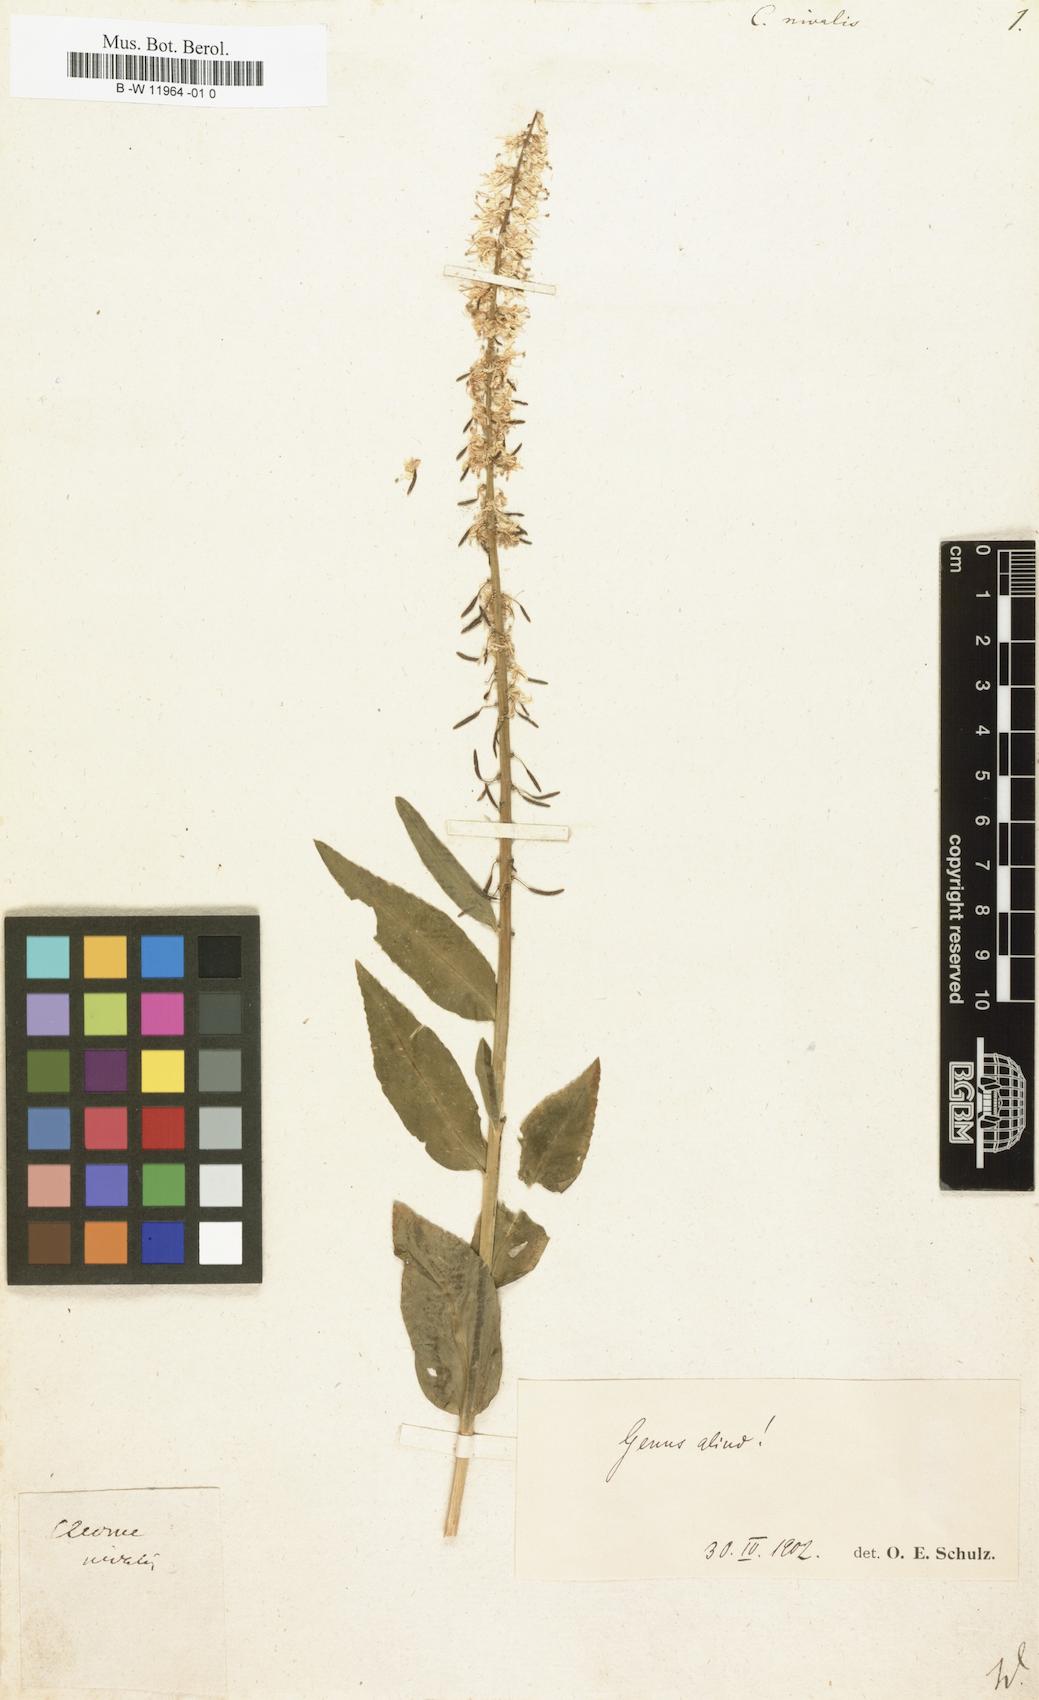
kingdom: Plantae
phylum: Tracheophyta
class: Magnoliopsida
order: Brassicales
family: Brassicaceae
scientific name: Brassicaceae
